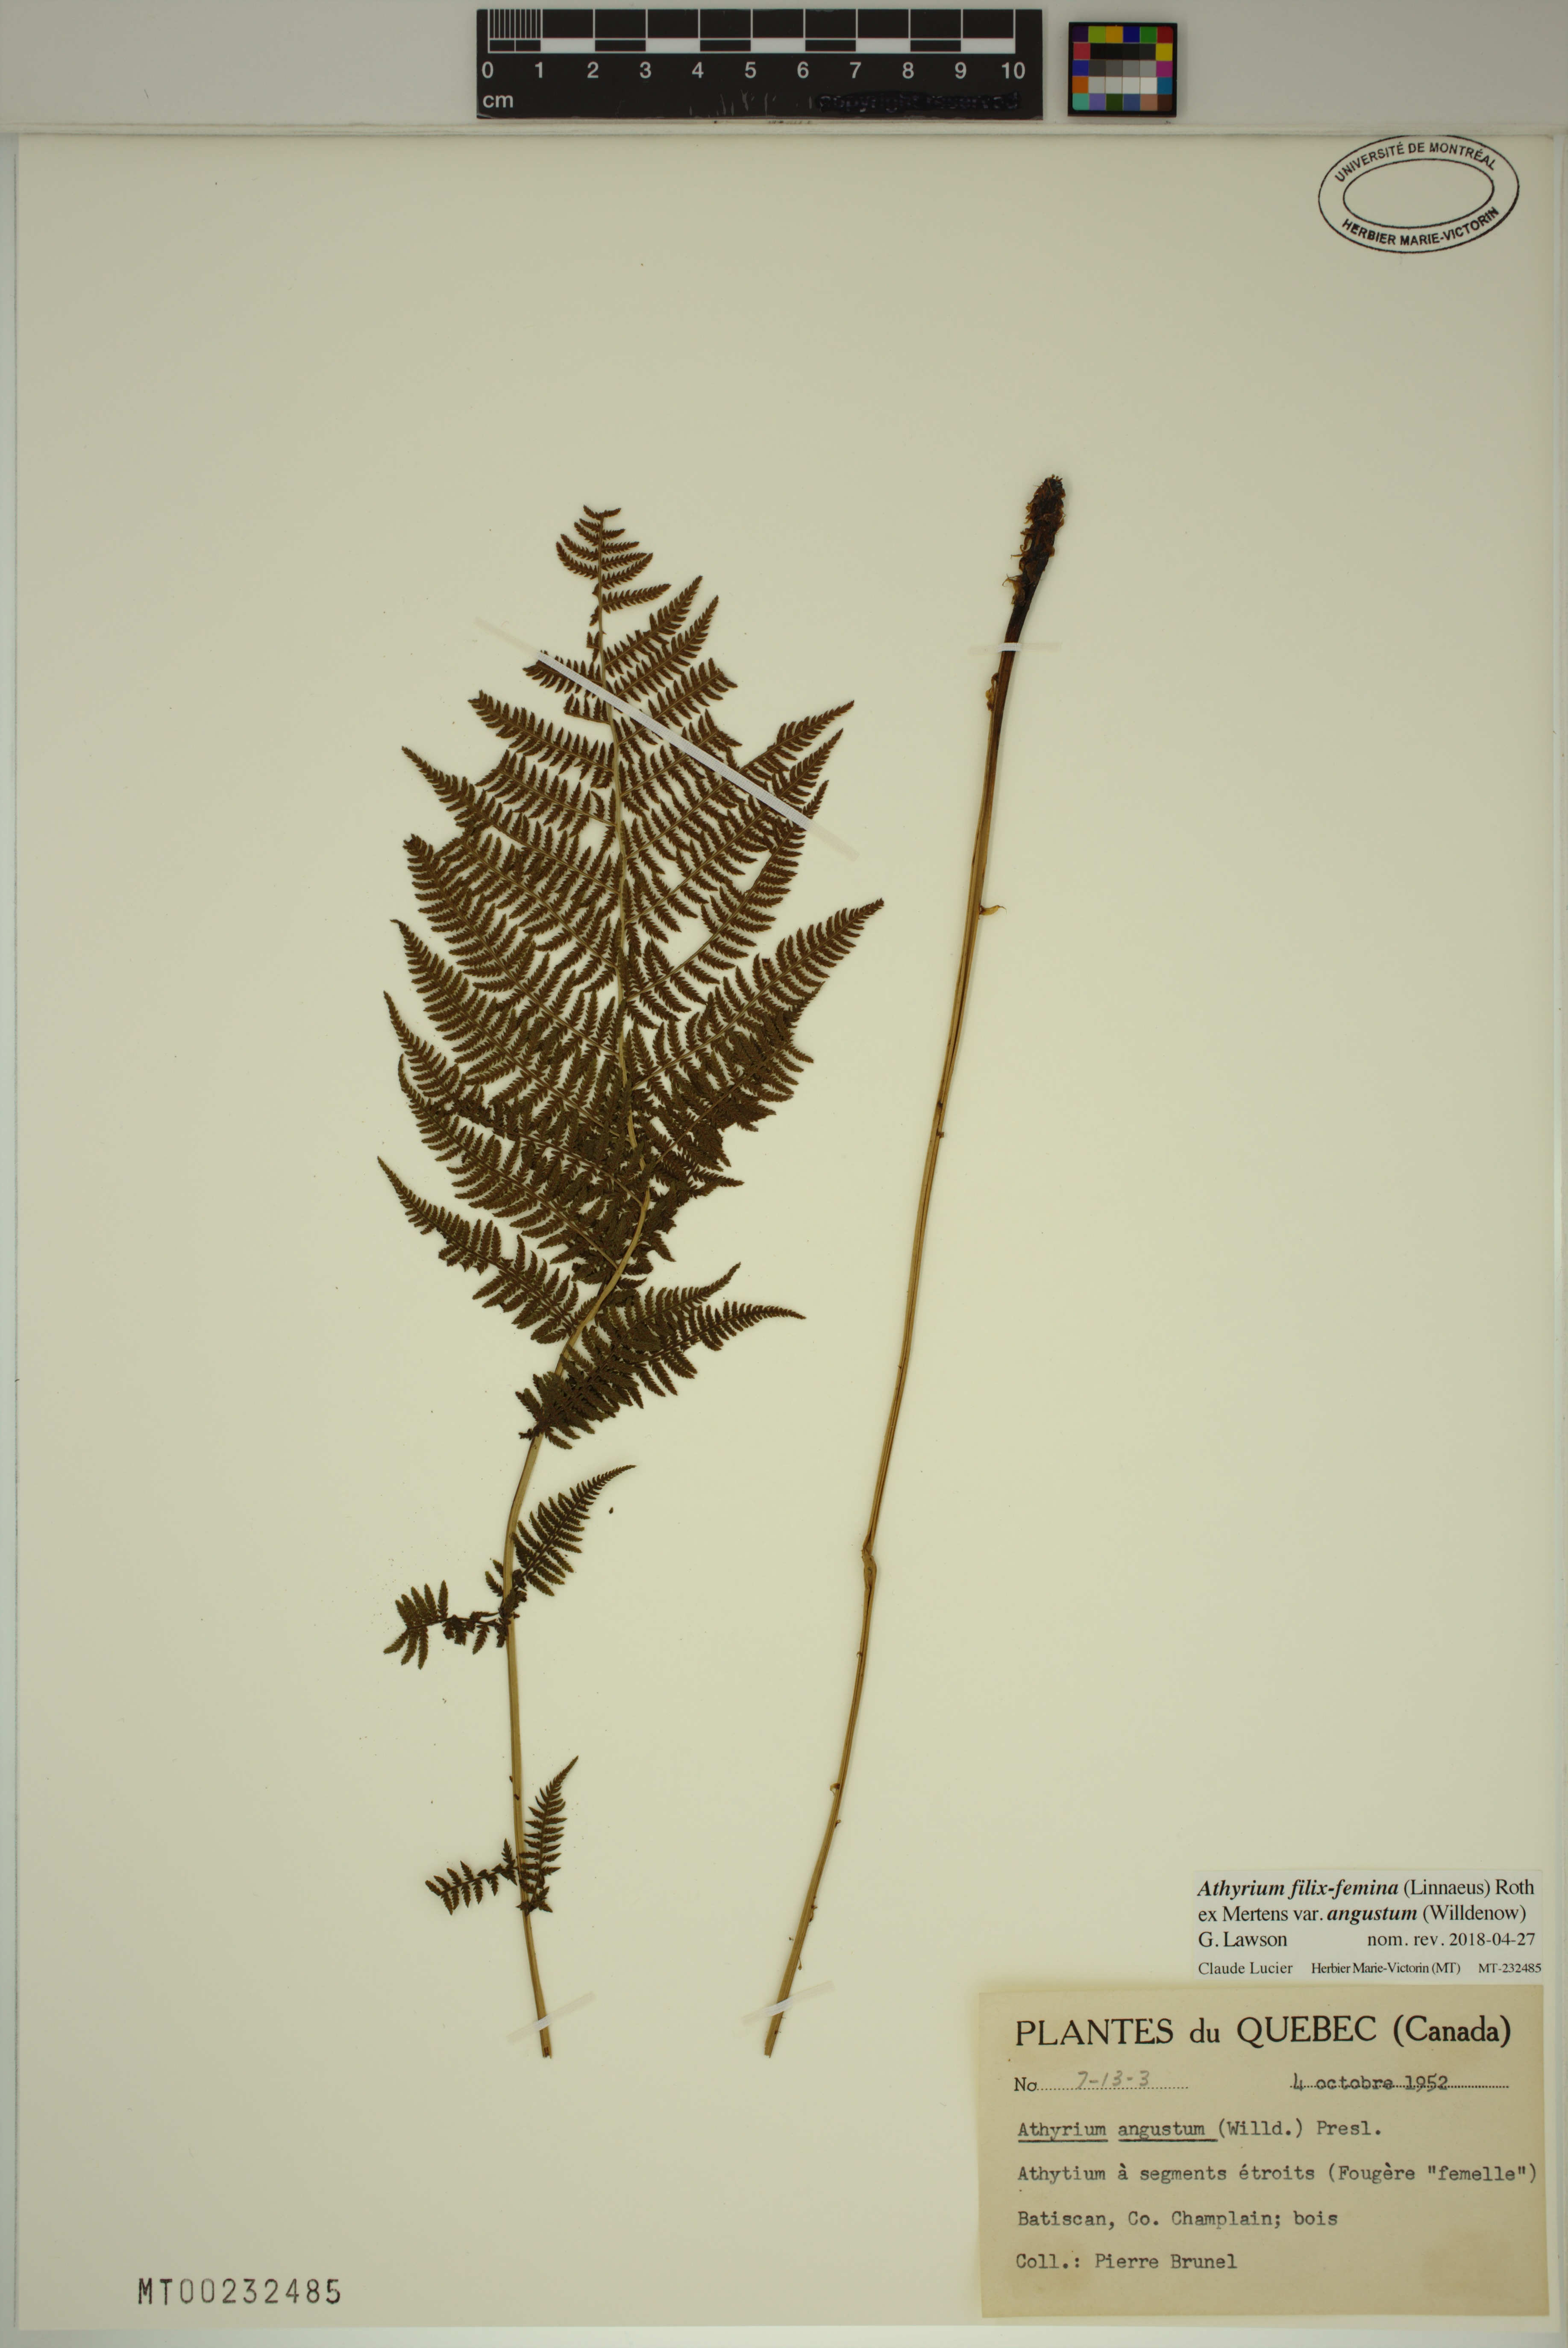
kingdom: Plantae
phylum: Tracheophyta
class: Polypodiopsida
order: Polypodiales
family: Athyriaceae
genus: Athyrium
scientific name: Athyrium angustum
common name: Northern lady fern
